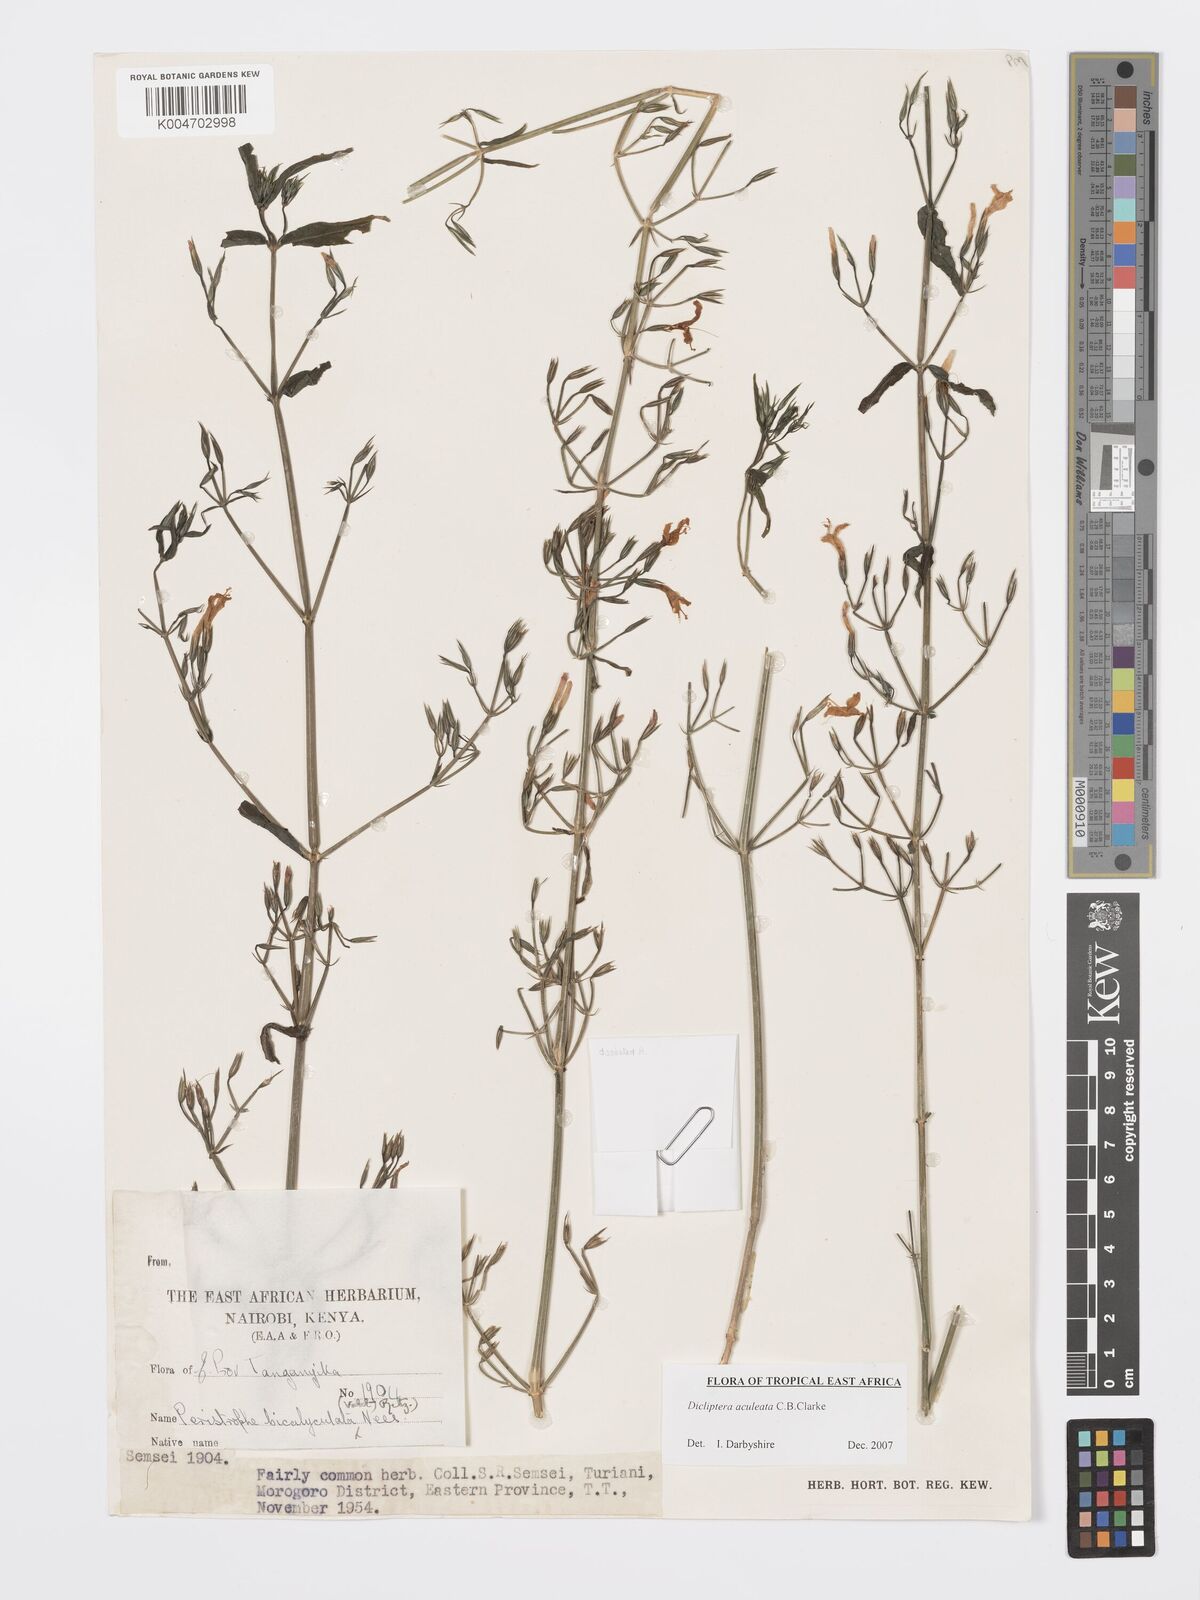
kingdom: Plantae
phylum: Tracheophyta
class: Magnoliopsida
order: Lamiales
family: Acanthaceae
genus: Dicliptera
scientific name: Dicliptera hensii
